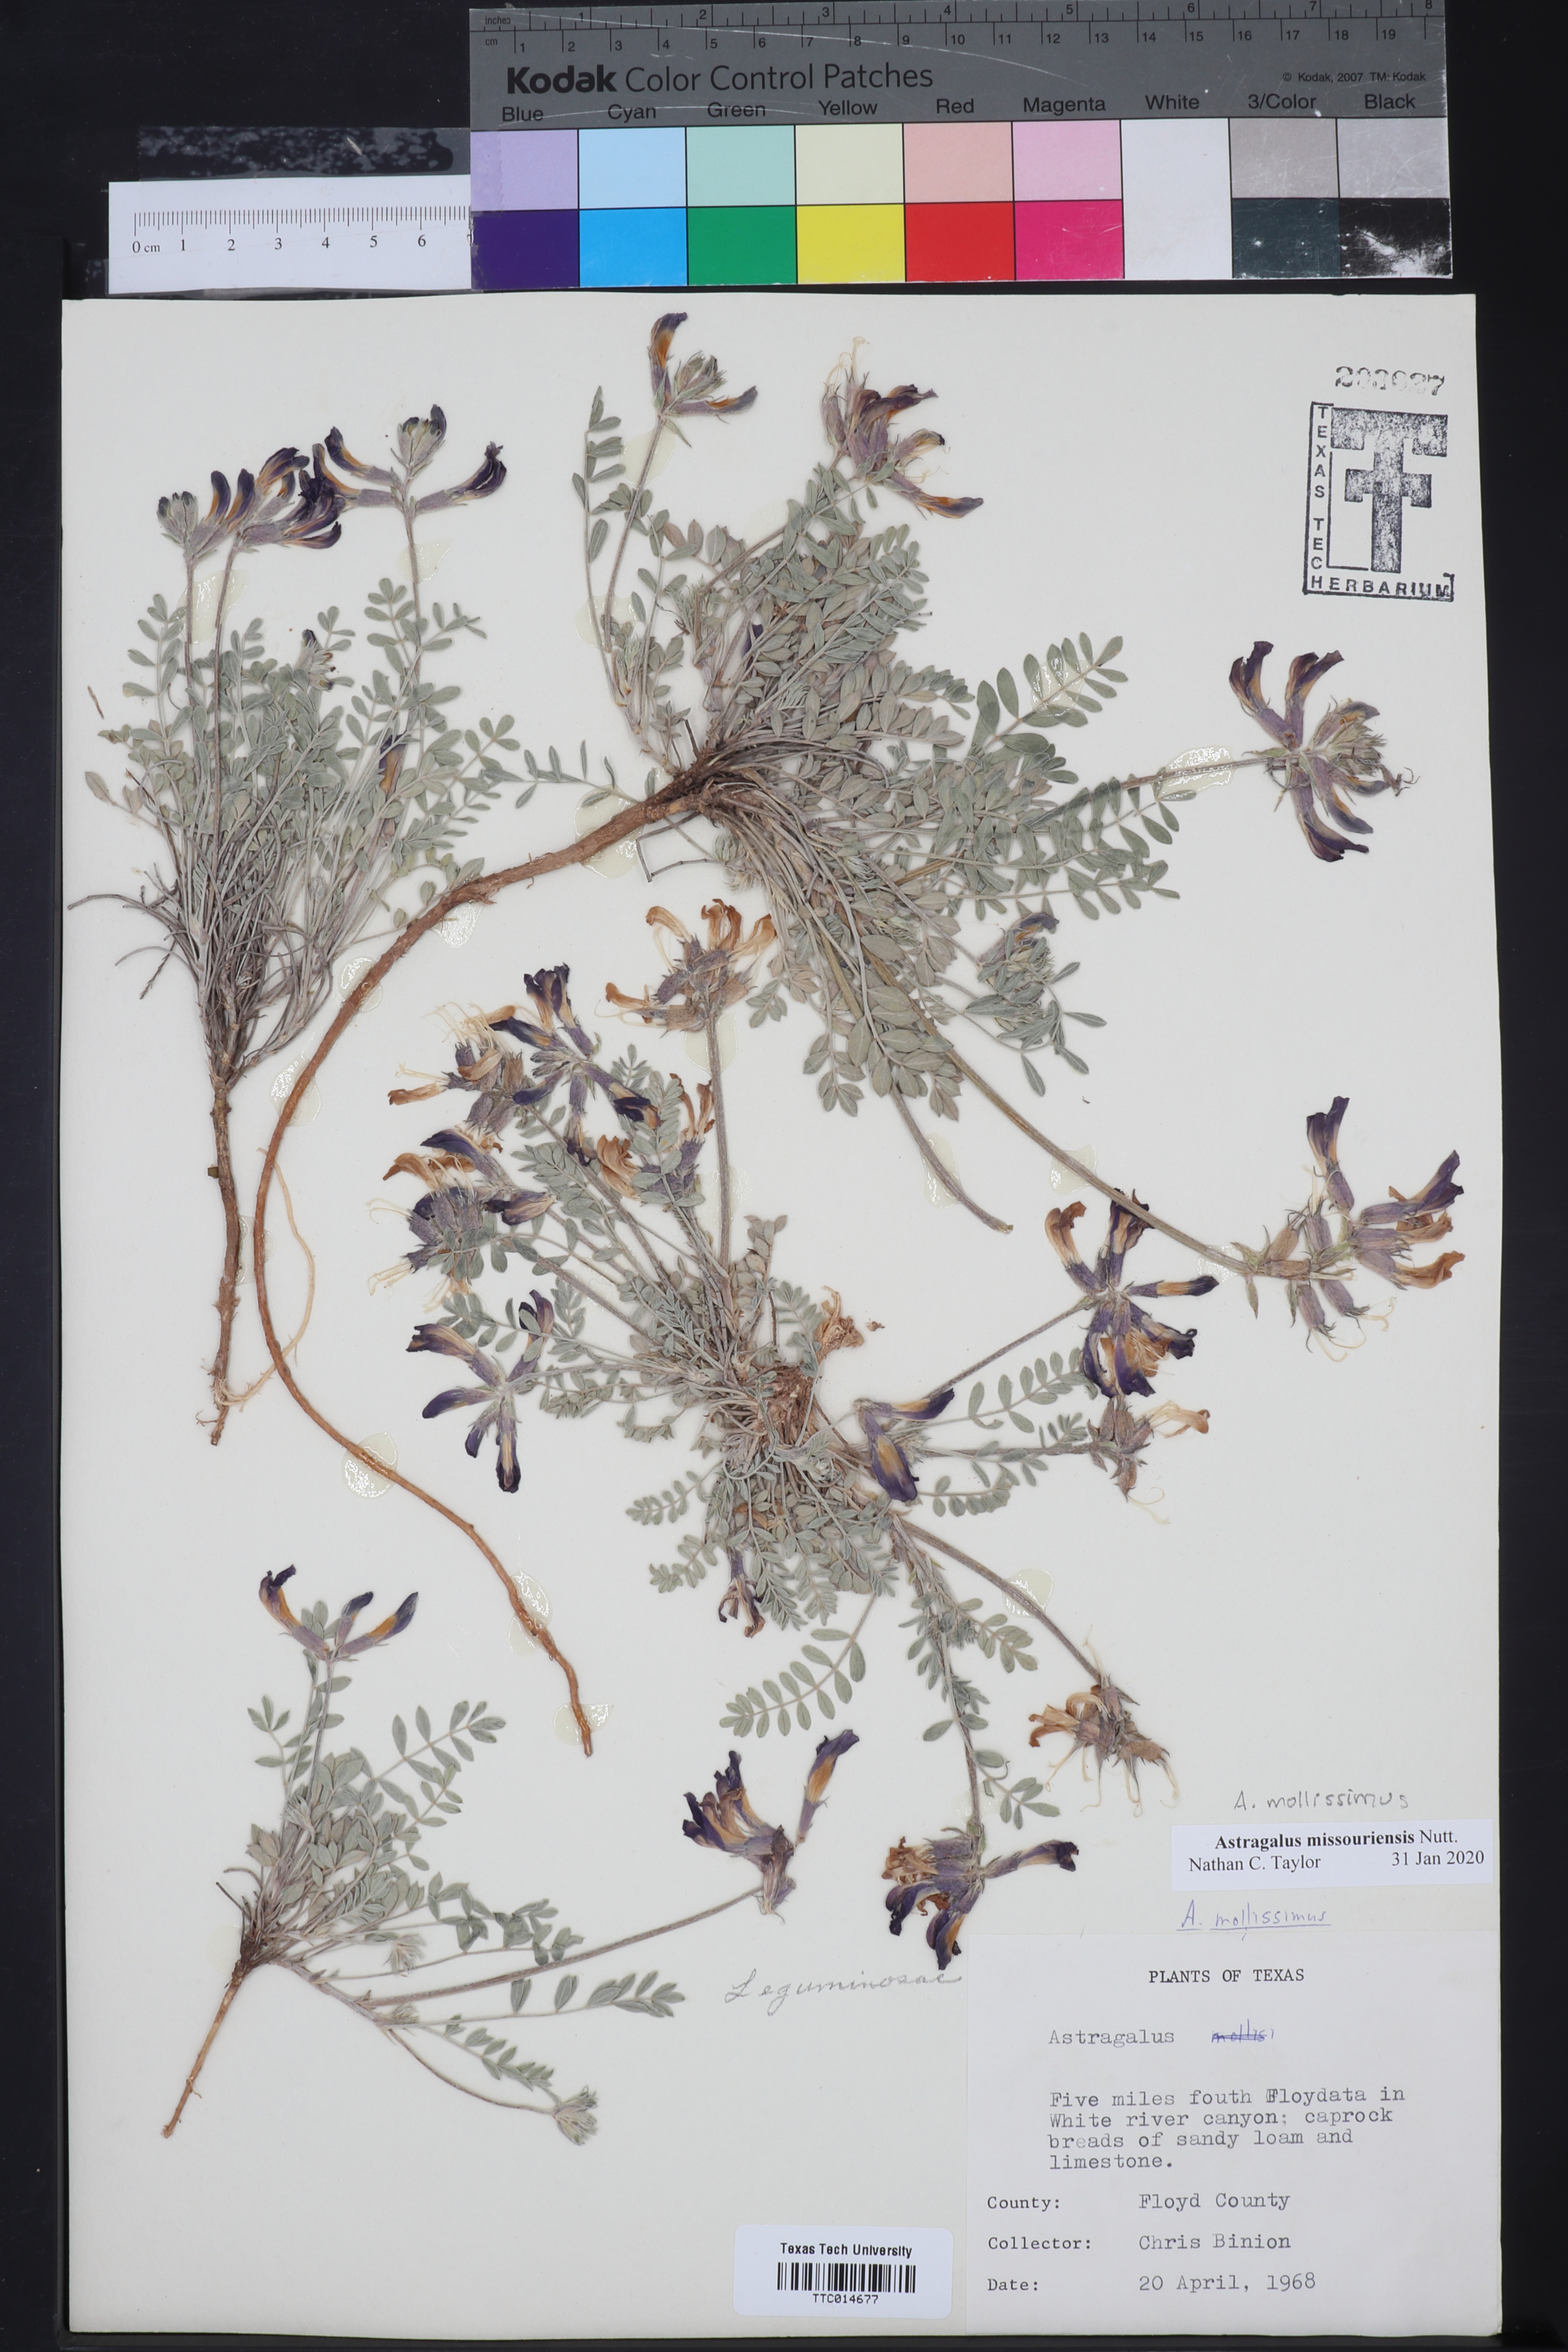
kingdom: Plantae
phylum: Tracheophyta
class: Magnoliopsida
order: Fabales
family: Fabaceae
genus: Astragalus
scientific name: Astragalus missouriensis
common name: Missouri milk-vetch
